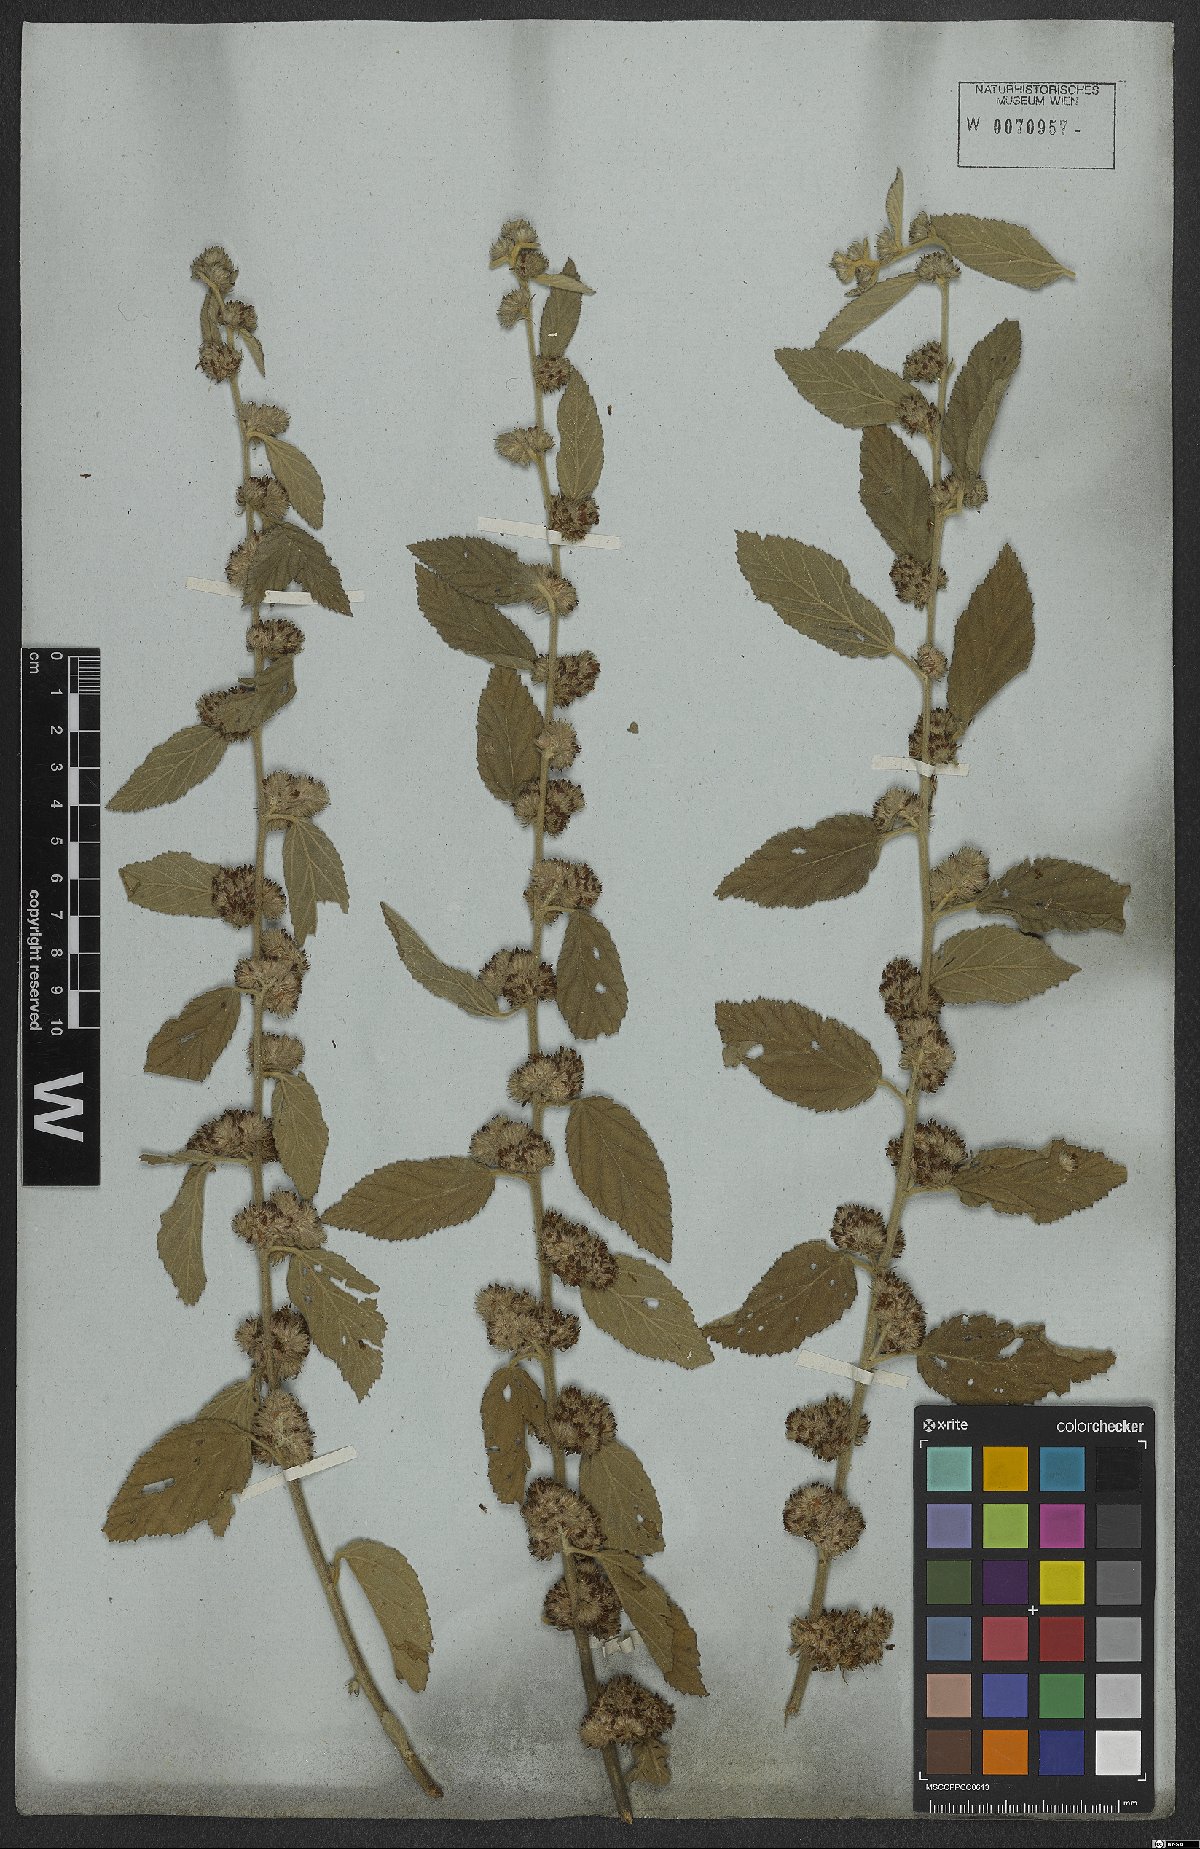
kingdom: Plantae
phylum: Tracheophyta
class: Magnoliopsida
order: Malvales
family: Malvaceae
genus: Waltheria
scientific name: Waltheria indica
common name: Leather-coat
